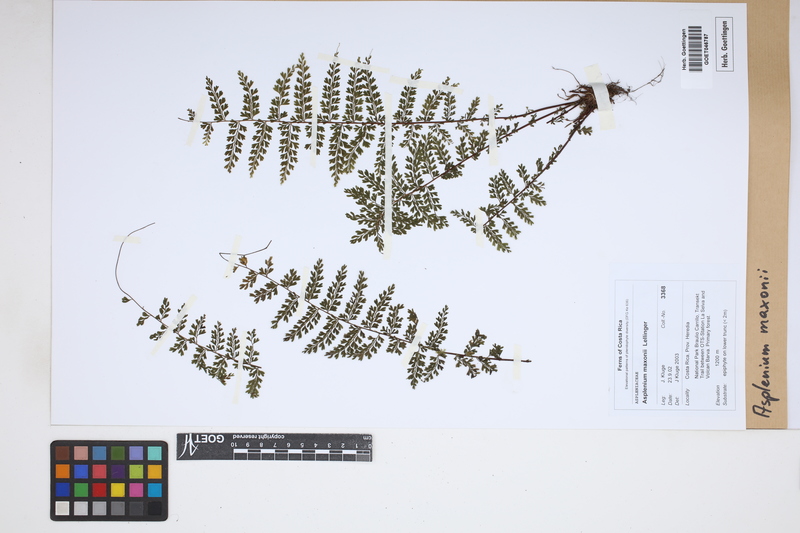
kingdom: Plantae
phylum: Tracheophyta
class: Polypodiopsida
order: Polypodiales
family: Aspleniaceae
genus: Asplenium
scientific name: Asplenium maxonii
